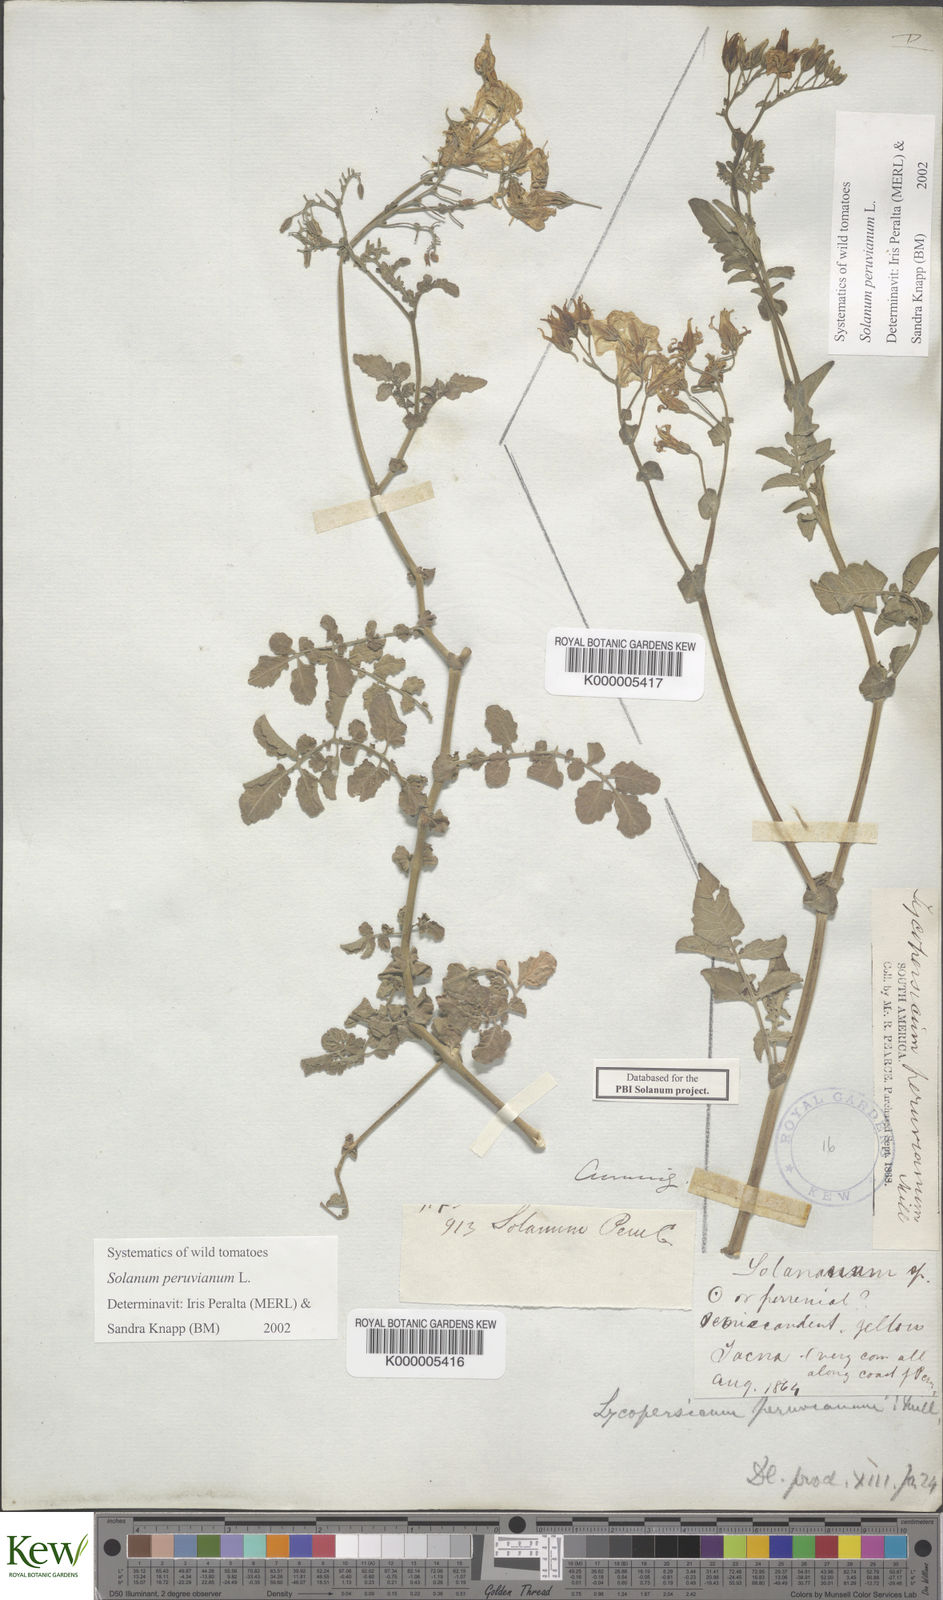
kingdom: Plantae
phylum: Tracheophyta
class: Magnoliopsida
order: Solanales
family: Solanaceae
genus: Solanum
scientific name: Solanum peruvianum
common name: Peruvian nightshade
